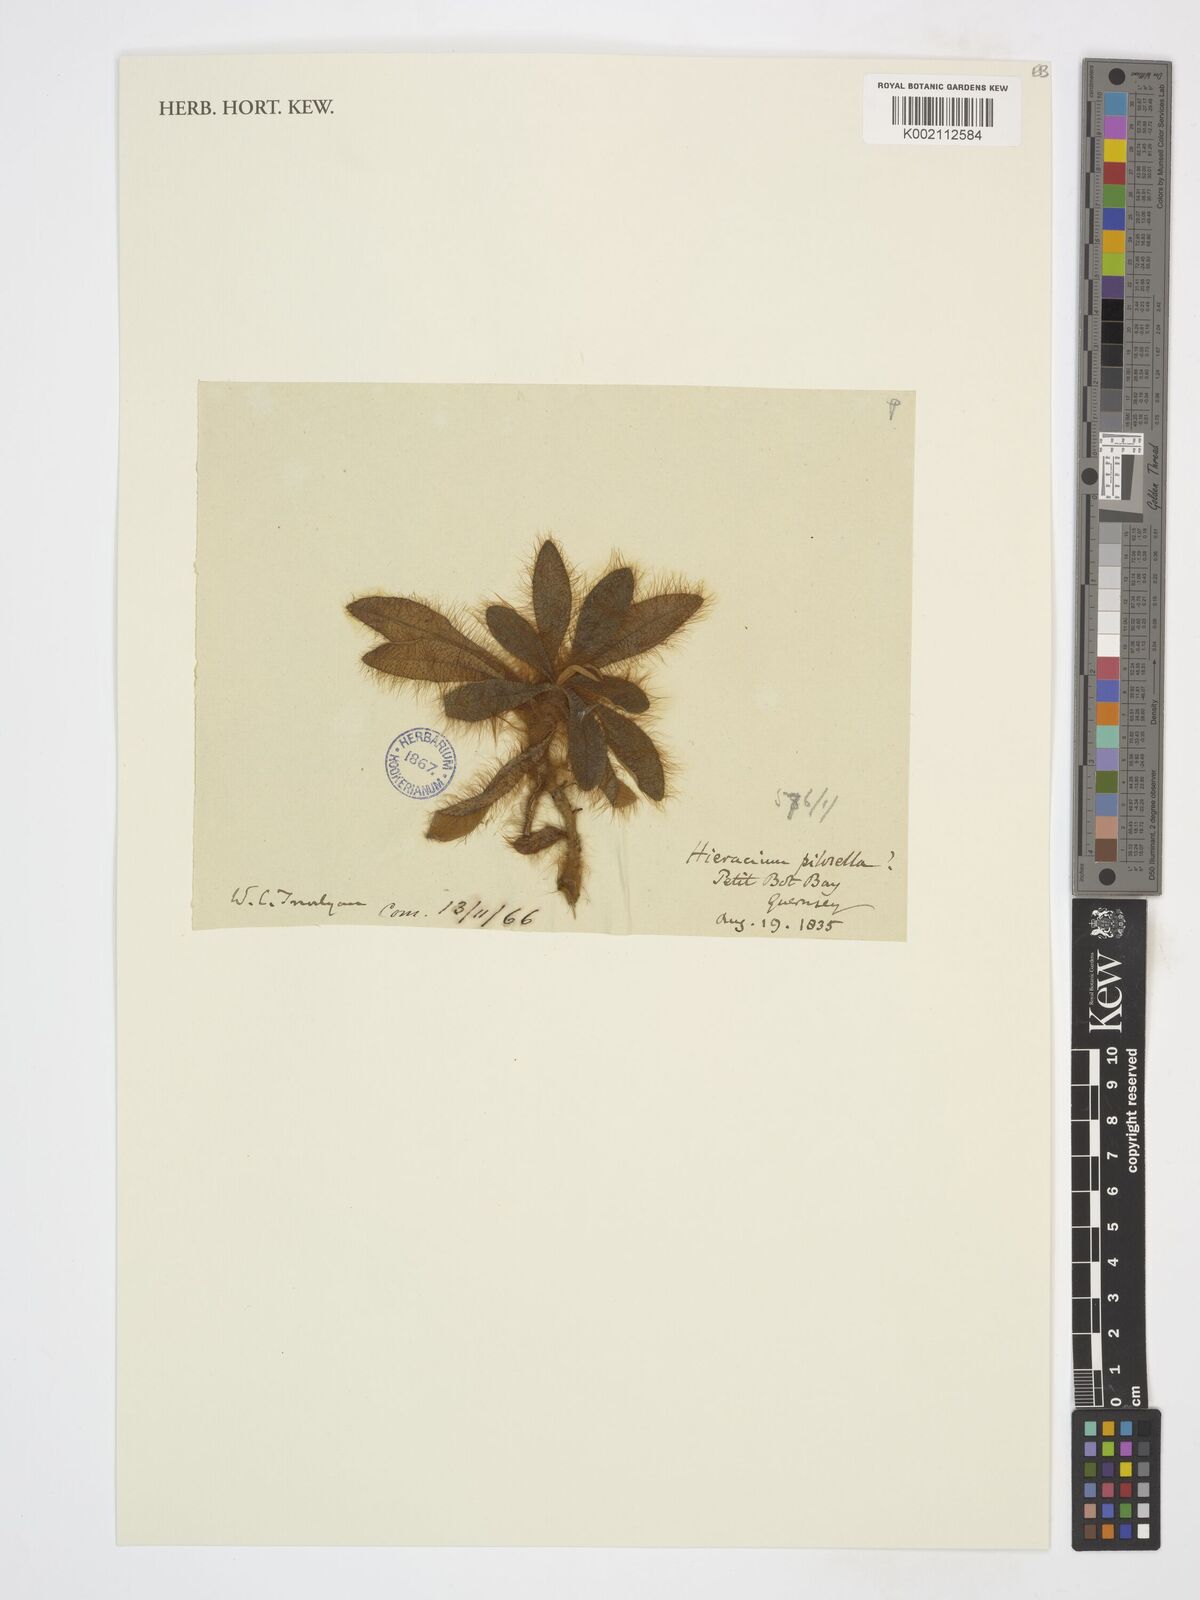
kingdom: Plantae
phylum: Tracheophyta
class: Magnoliopsida
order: Asterales
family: Asteraceae
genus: Pilosella
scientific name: Pilosella officinarum
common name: Mouse-ear hawkweed
